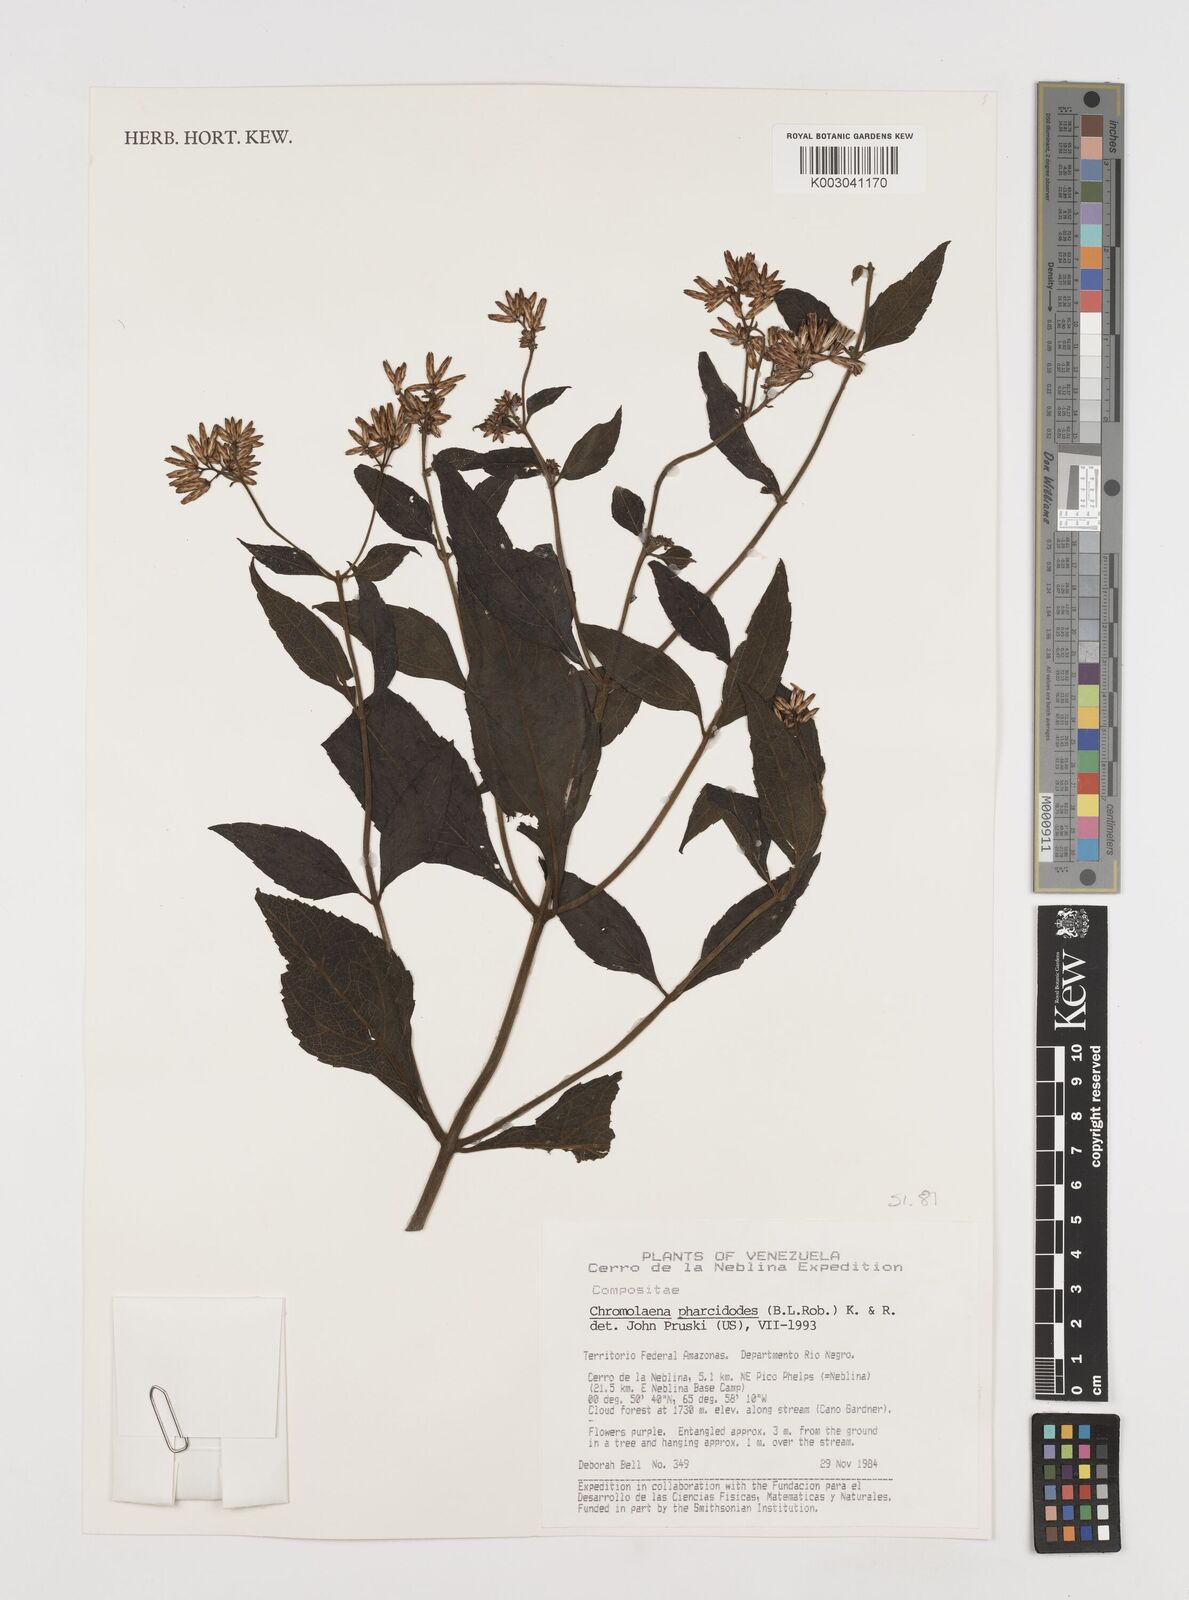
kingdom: Plantae
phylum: Tracheophyta
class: Magnoliopsida
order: Asterales
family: Asteraceae
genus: Chromolaena
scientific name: Chromolaena pharcidodes
